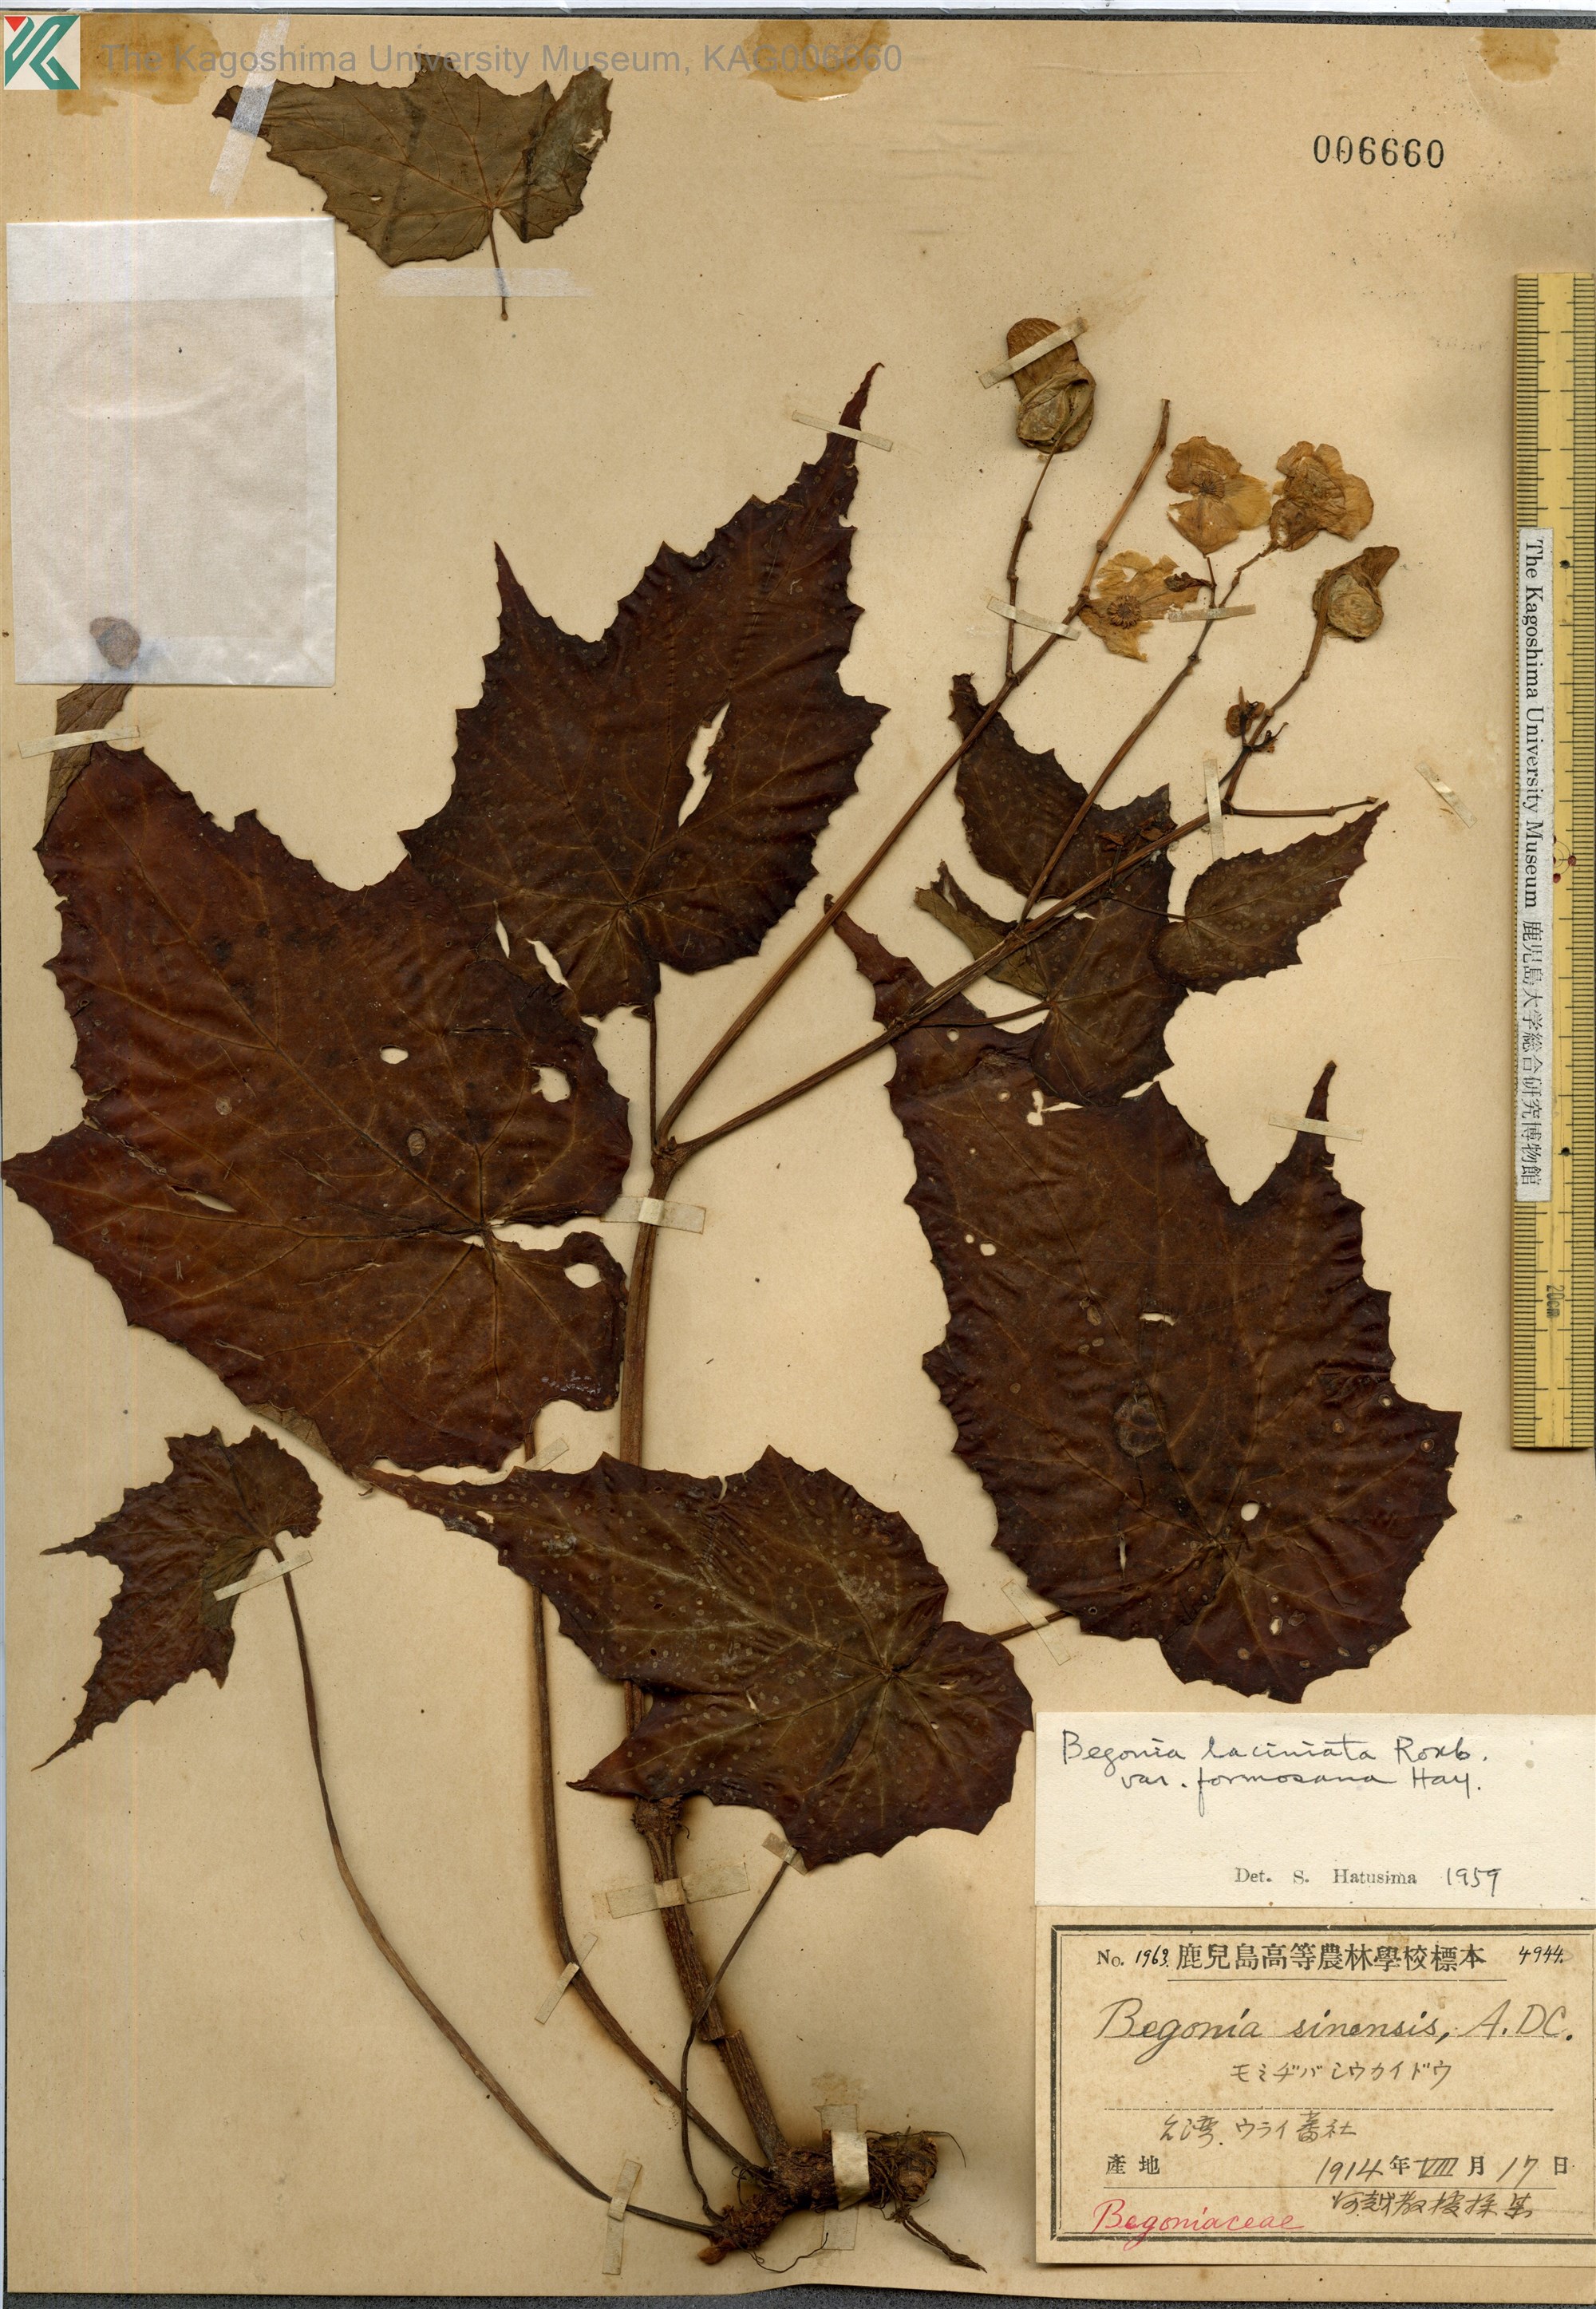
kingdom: Plantae
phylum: Tracheophyta
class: Magnoliopsida
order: Cucurbitales
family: Begoniaceae
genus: Begonia
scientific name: Begonia palmata
